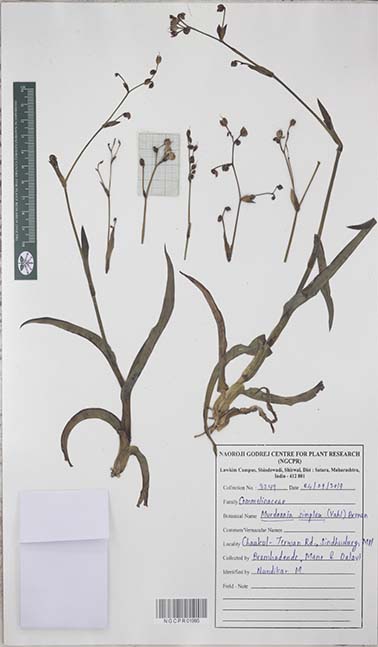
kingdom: Plantae
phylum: Tracheophyta
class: Liliopsida
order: Commelinales
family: Commelinaceae
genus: Murdannia
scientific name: Murdannia simplex
